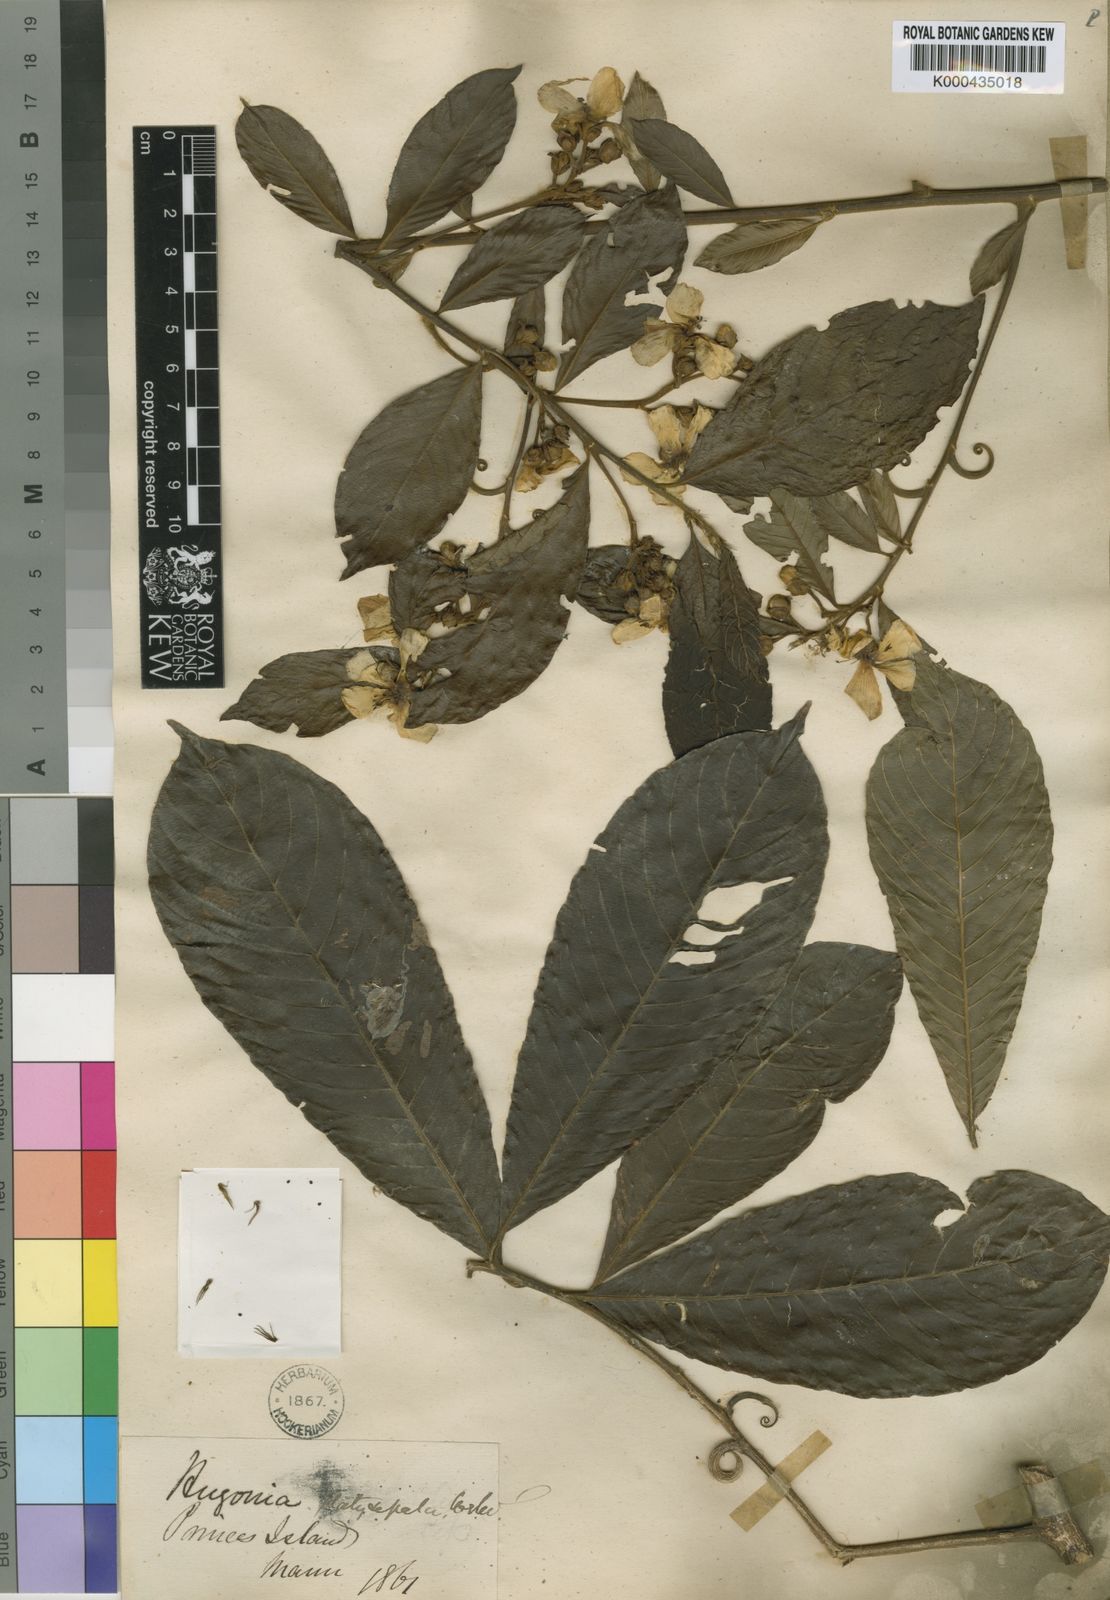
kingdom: Plantae
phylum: Tracheophyta
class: Magnoliopsida
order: Malpighiales
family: Linaceae
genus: Hugonia
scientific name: Hugonia platysepala
